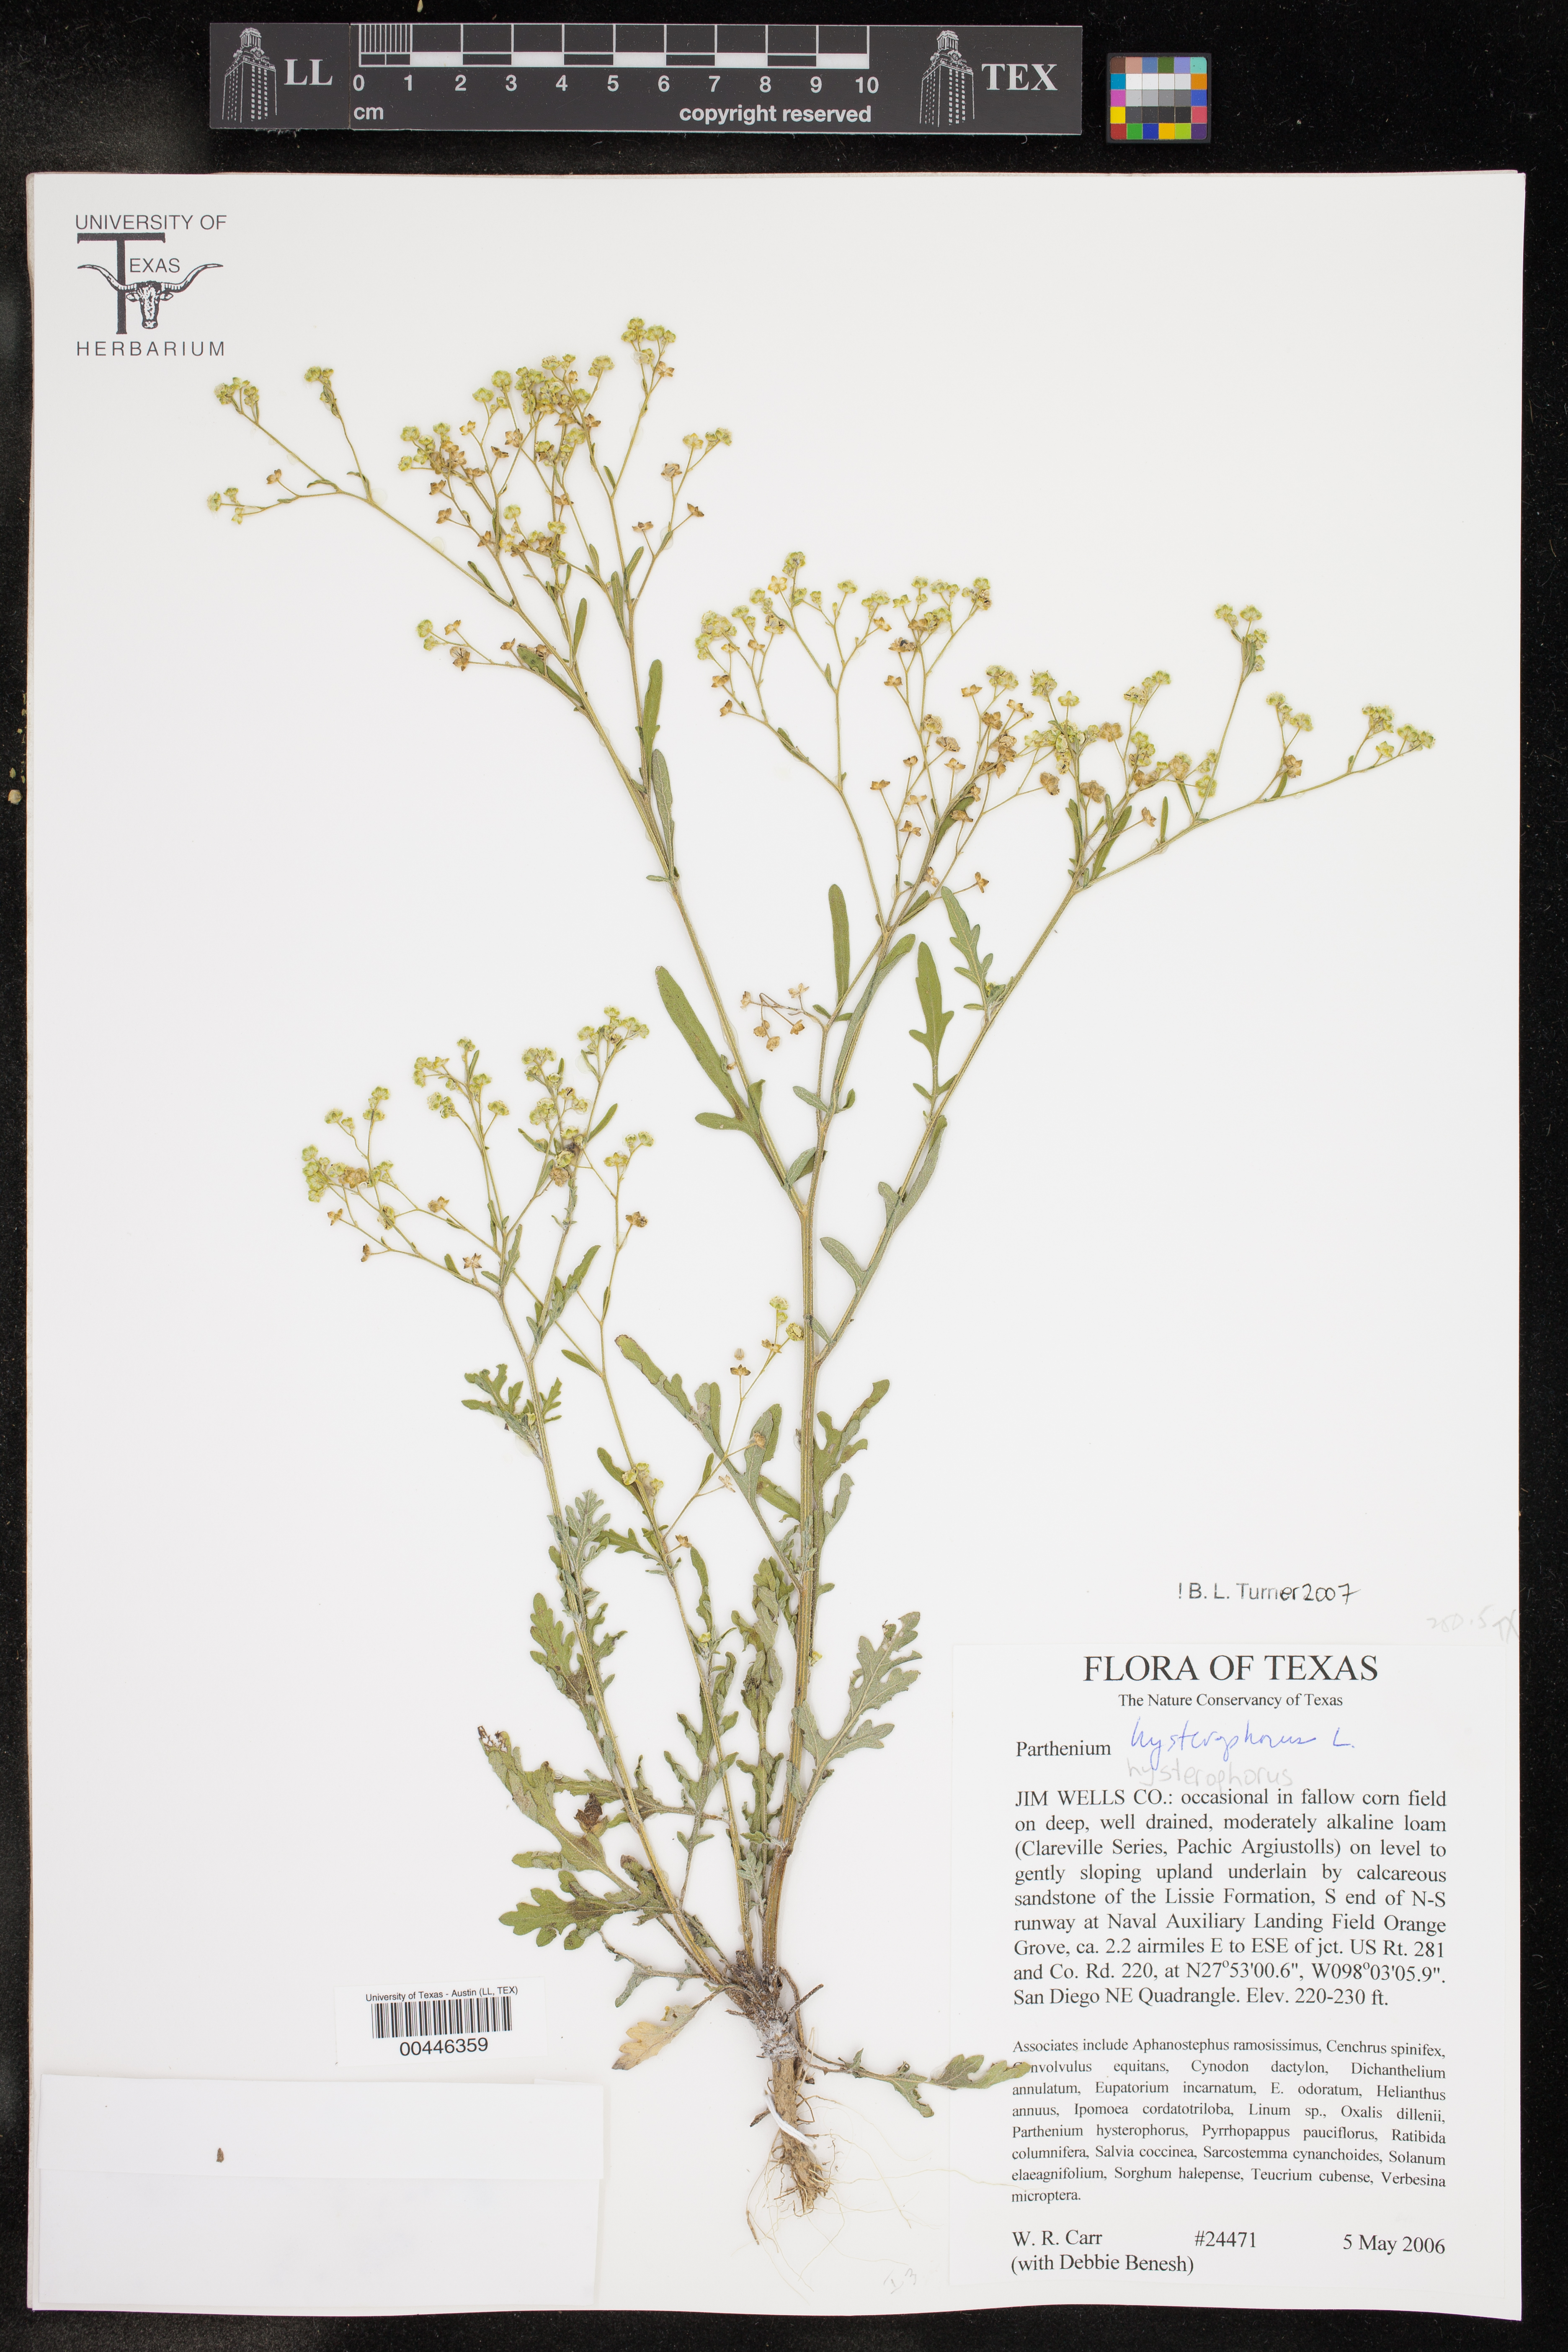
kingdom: Plantae
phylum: Tracheophyta
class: Magnoliopsida
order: Asterales
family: Asteraceae
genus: Parthenium
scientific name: Parthenium hysterophorus
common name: Santa maria feverfew
